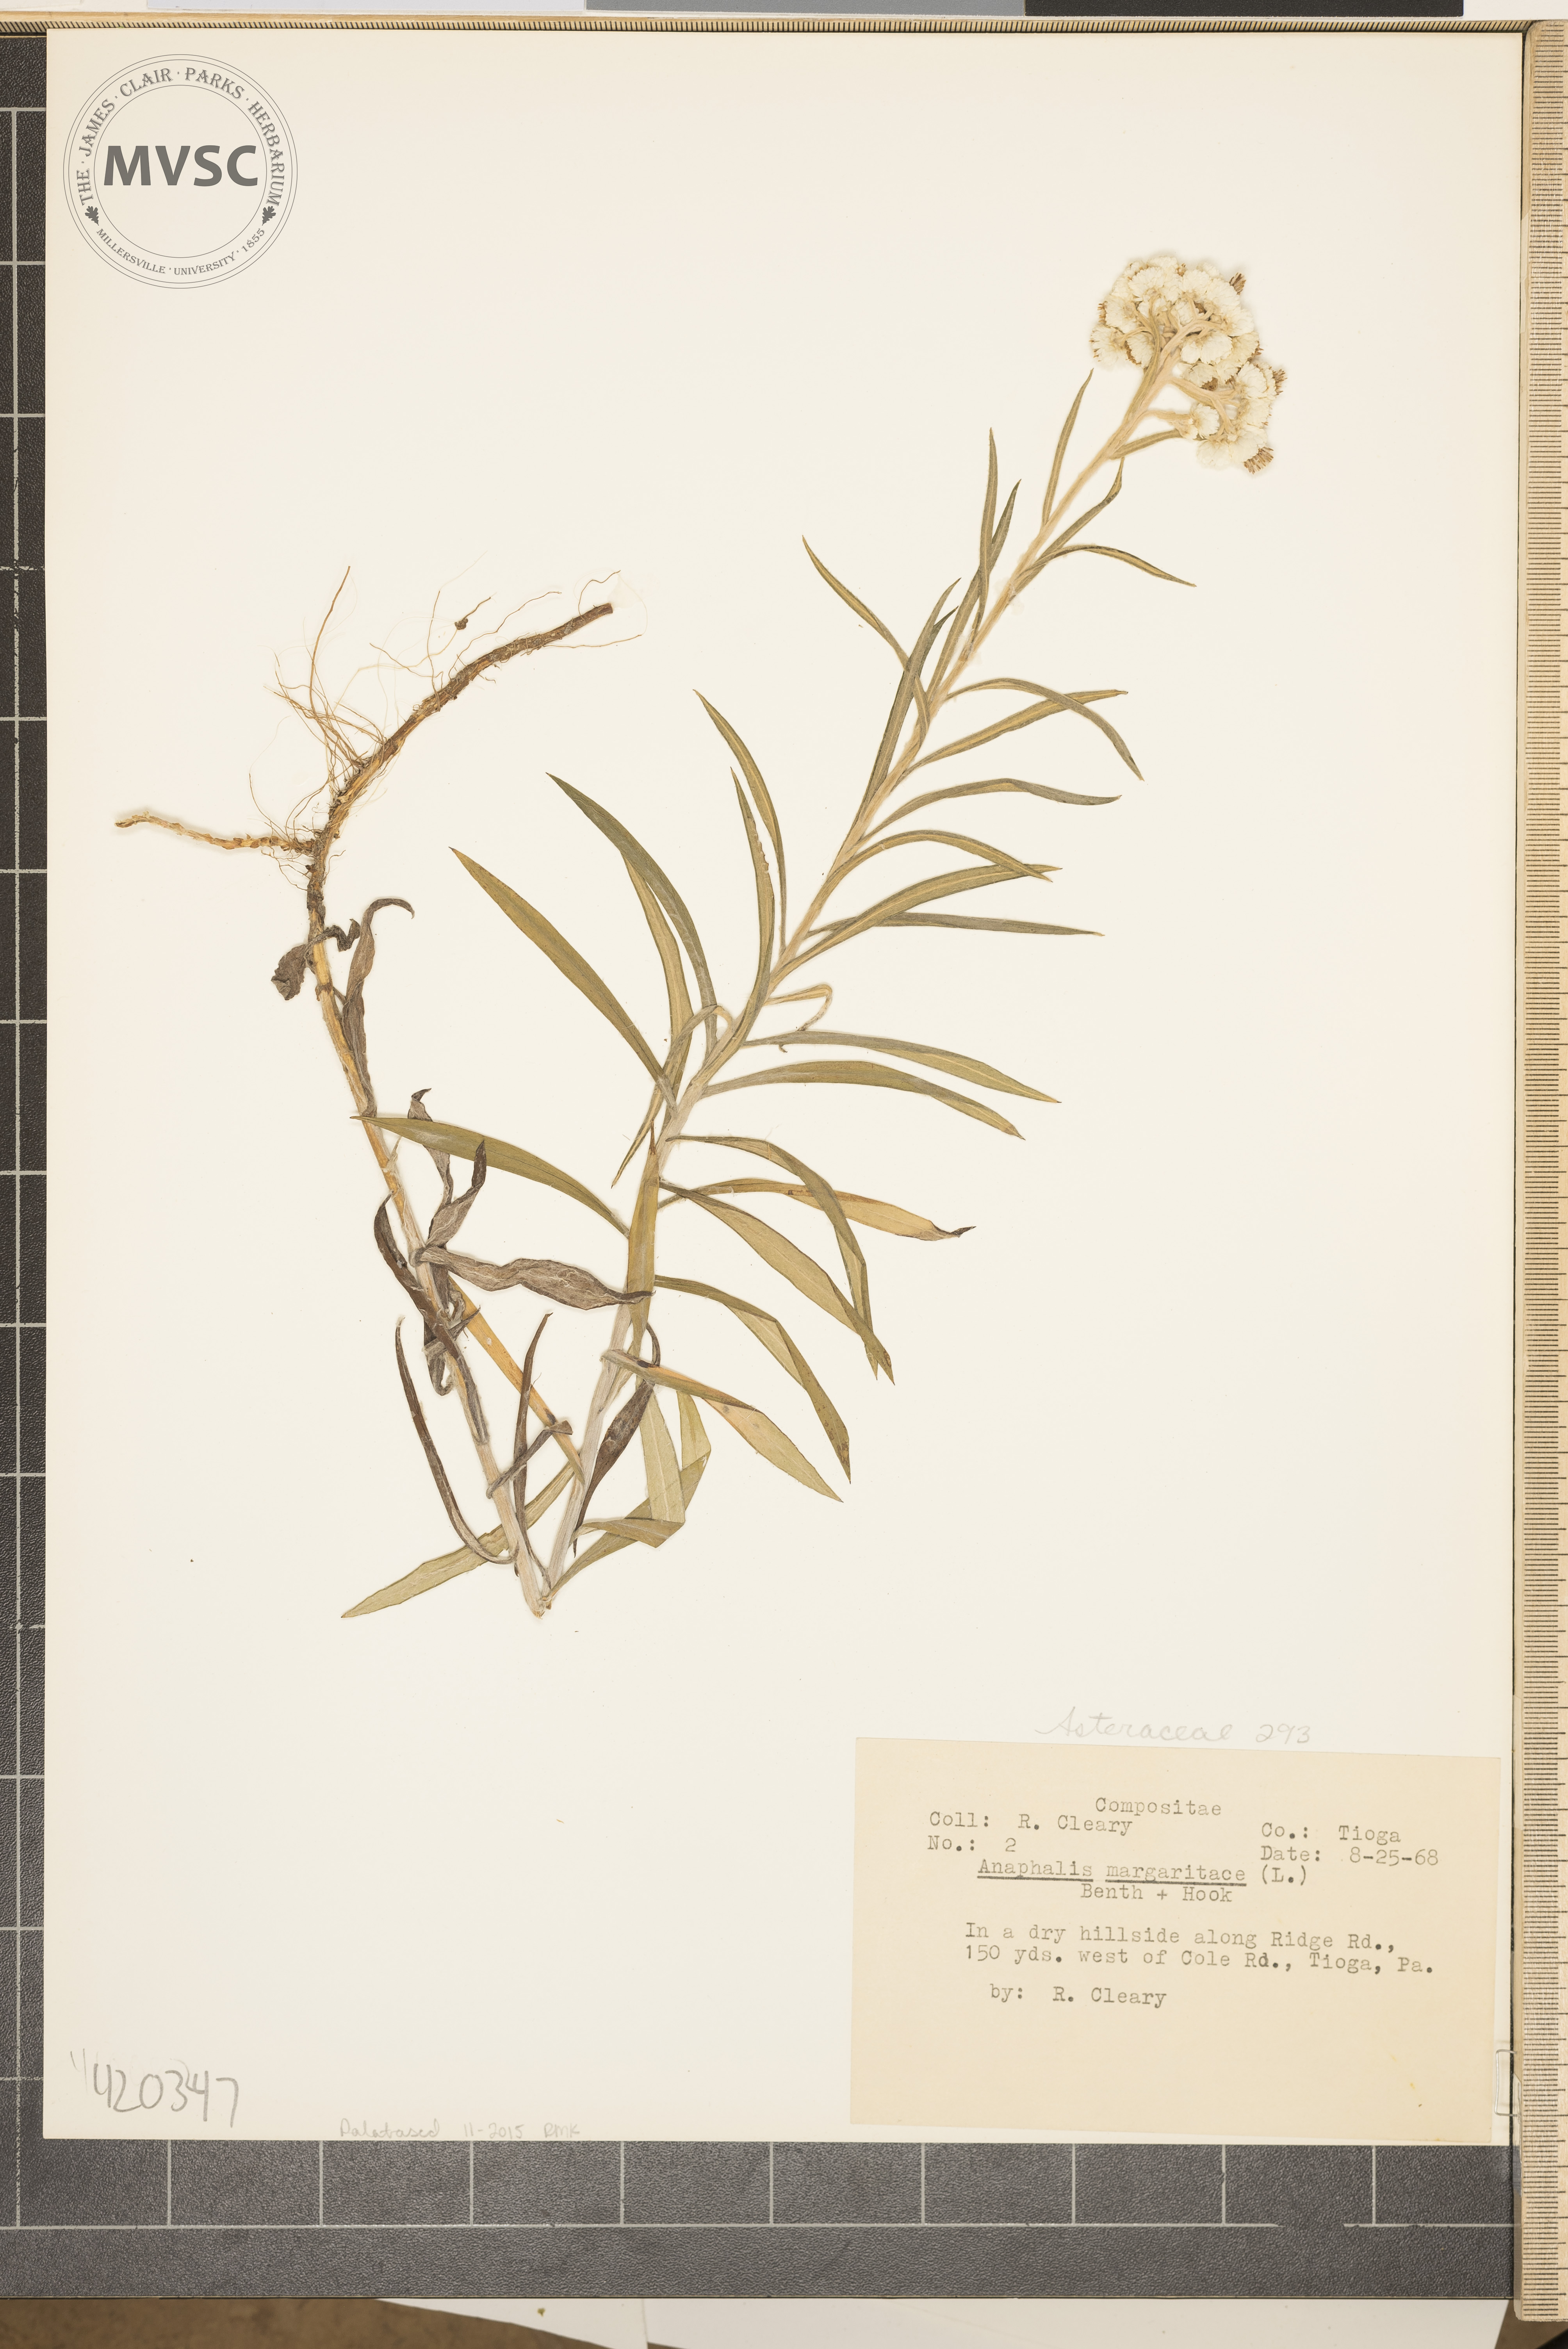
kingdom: Plantae
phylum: Tracheophyta
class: Magnoliopsida
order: Asterales
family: Asteraceae
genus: Anaphalis
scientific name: Anaphalis margaritacea
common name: Pearly everlasting
